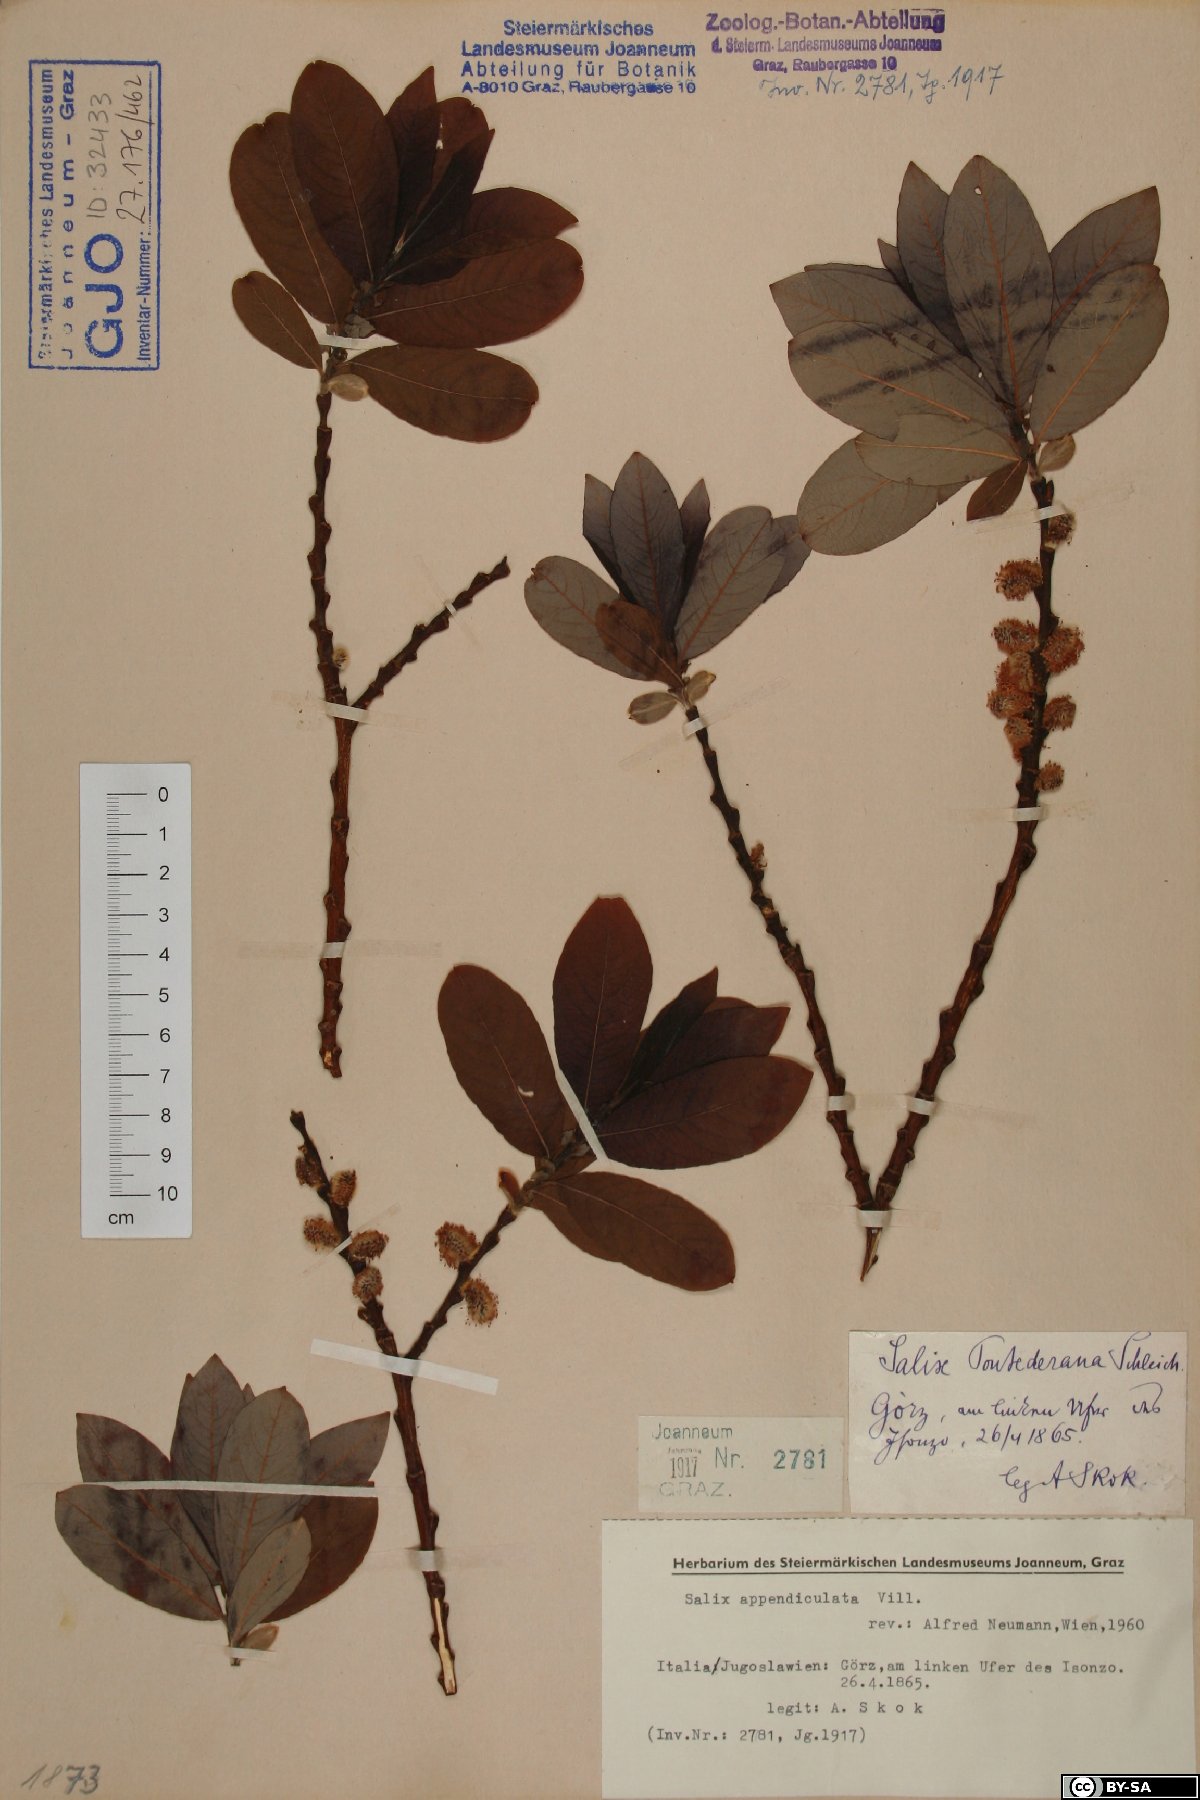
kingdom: Plantae
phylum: Tracheophyta
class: Magnoliopsida
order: Malpighiales
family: Salicaceae
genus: Salix
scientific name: Salix appendiculata
